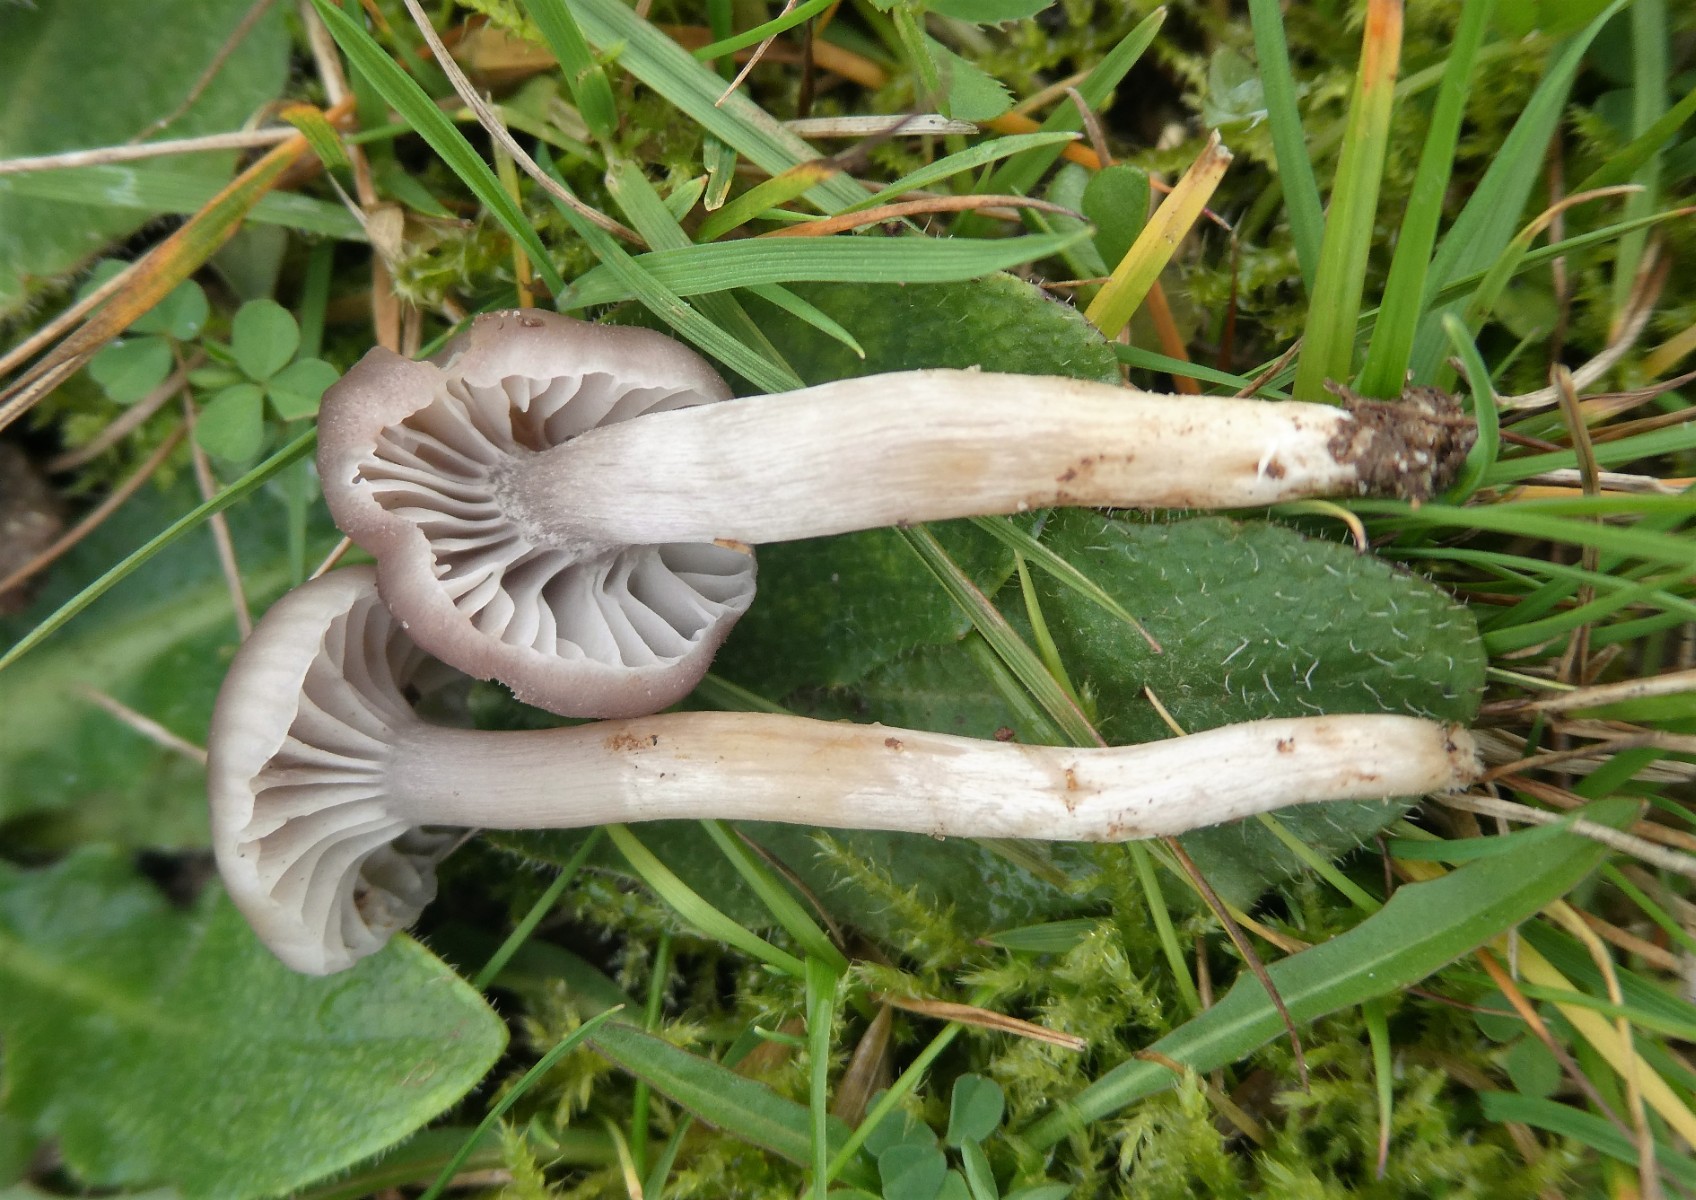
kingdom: Fungi
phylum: Basidiomycota
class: Agaricomycetes
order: Agaricales
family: Hygrophoraceae
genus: Cuphophyllus
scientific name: Cuphophyllus flavipes
